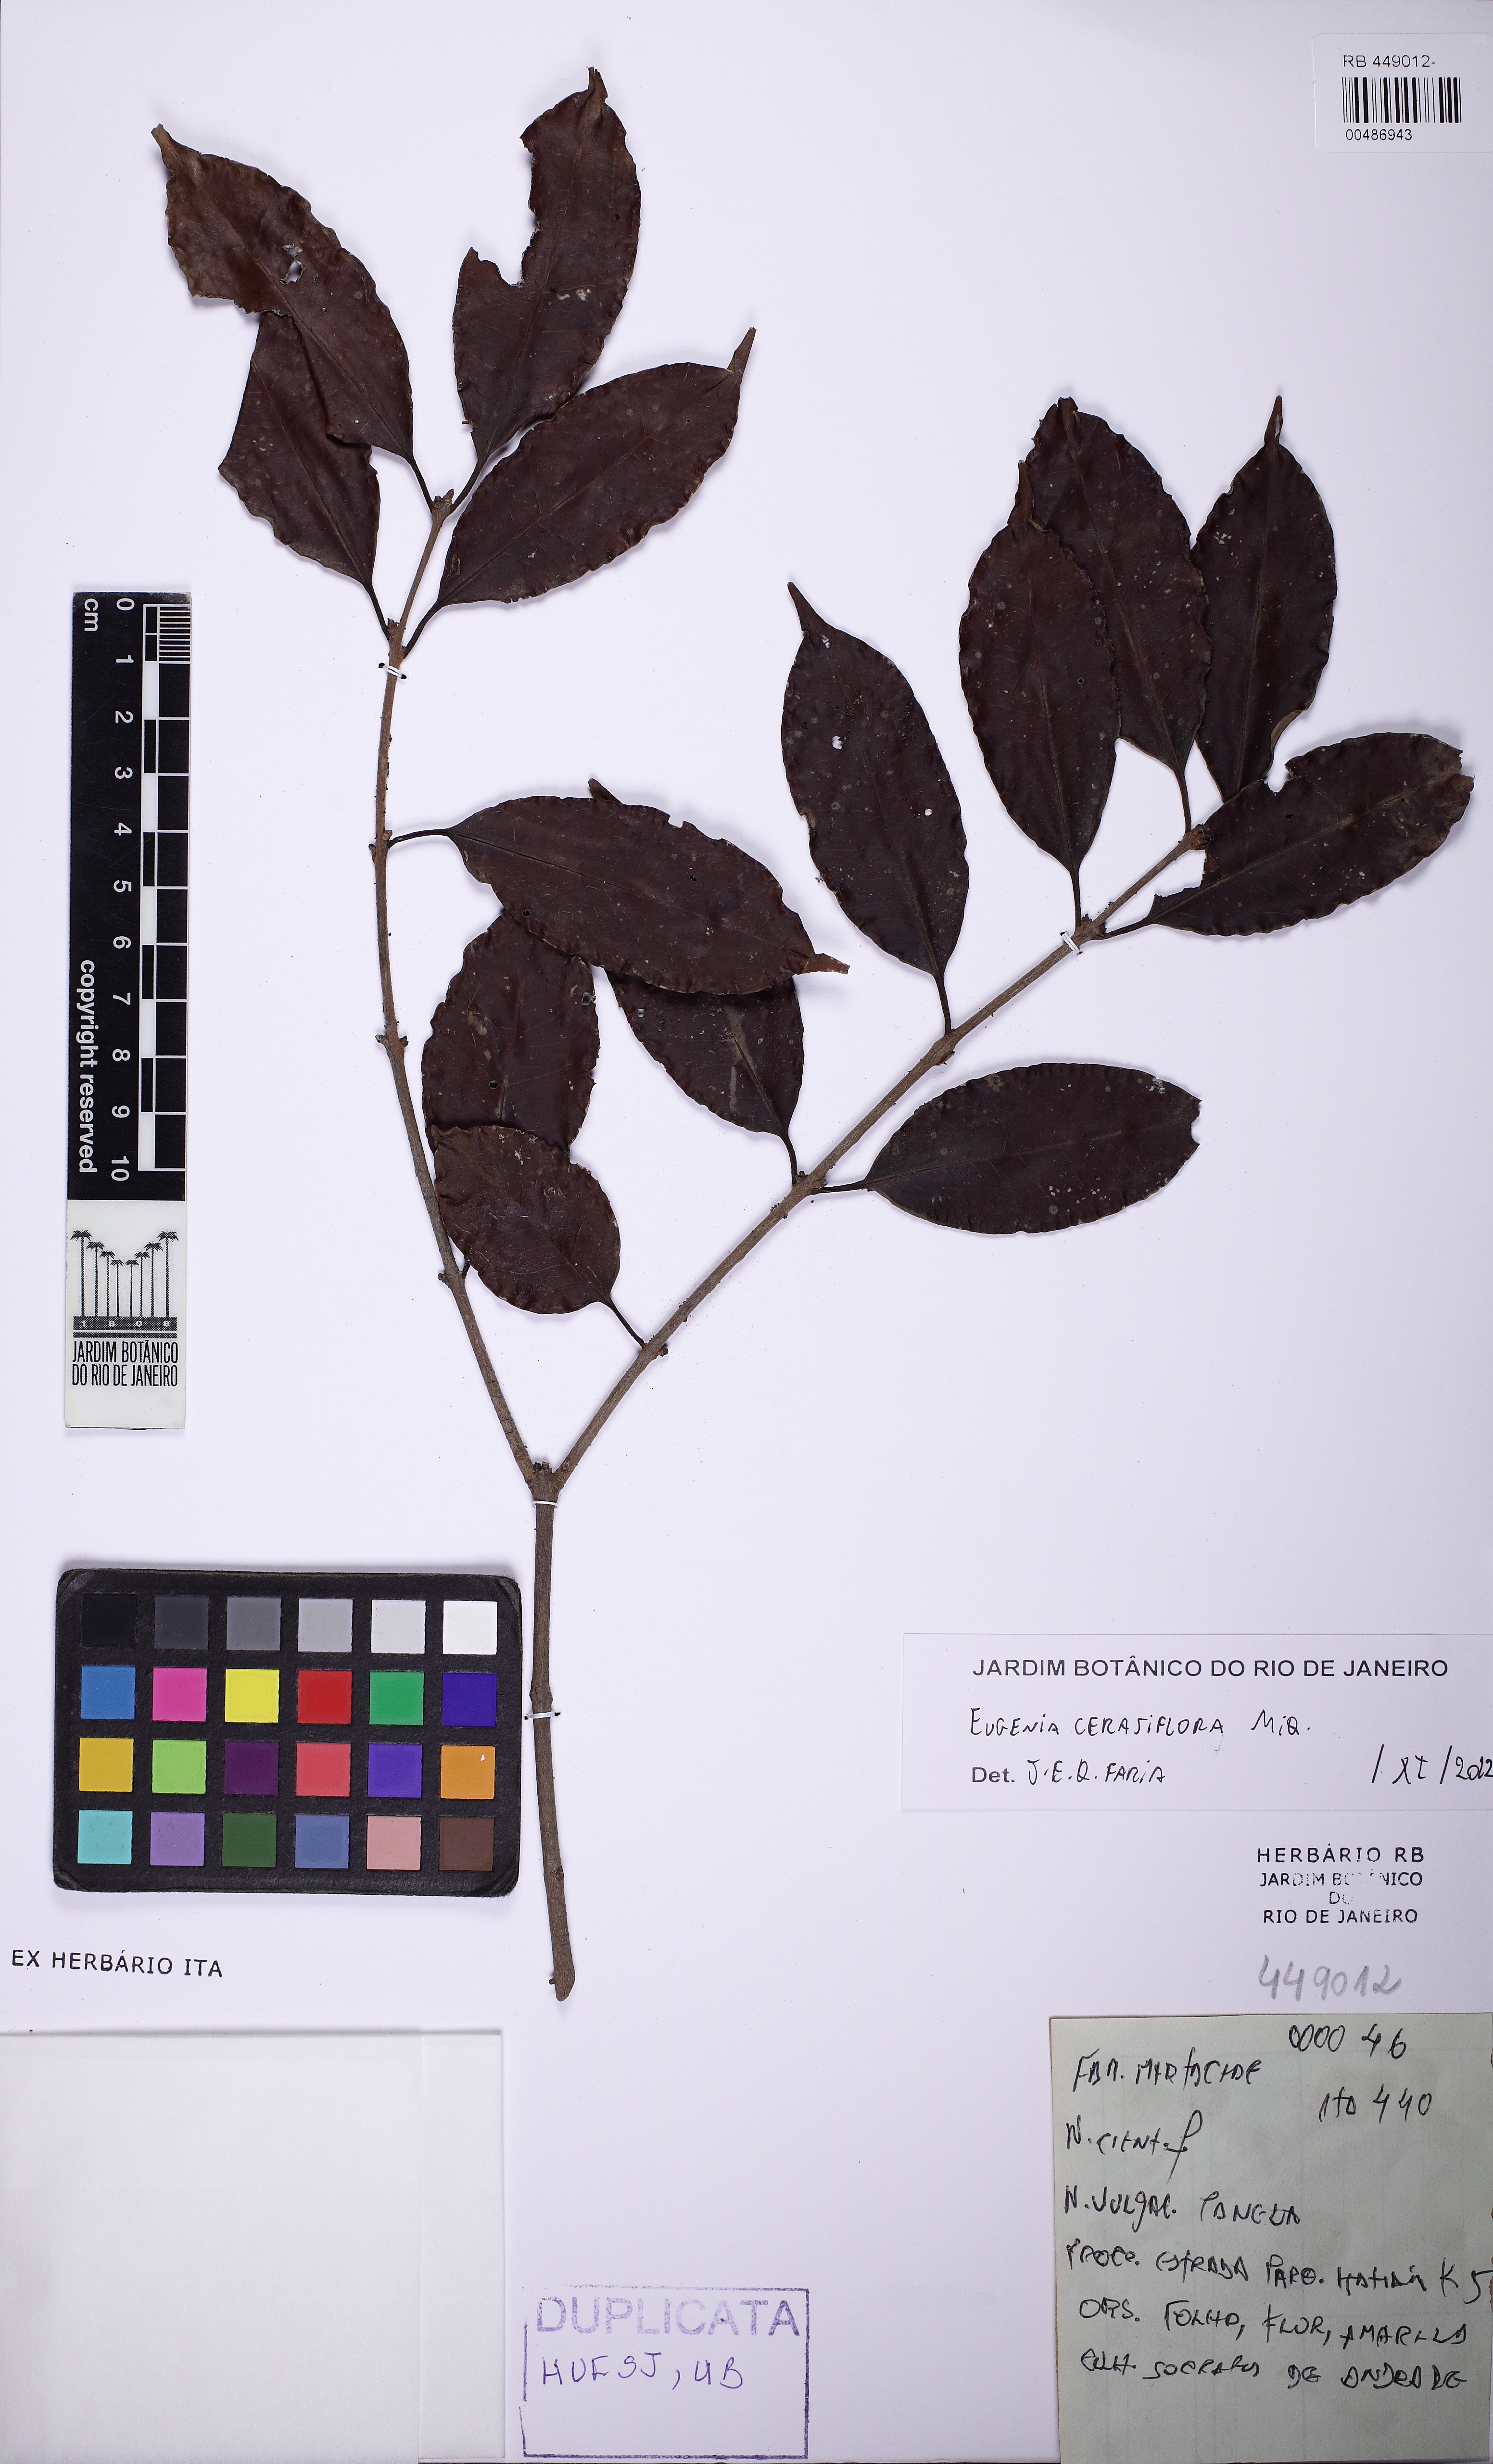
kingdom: Plantae
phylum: Tracheophyta
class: Magnoliopsida
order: Myrtales
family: Myrtaceae
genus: Eugenia
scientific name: Eugenia cerasiflora
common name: Cherry-of-the-rio-grande
